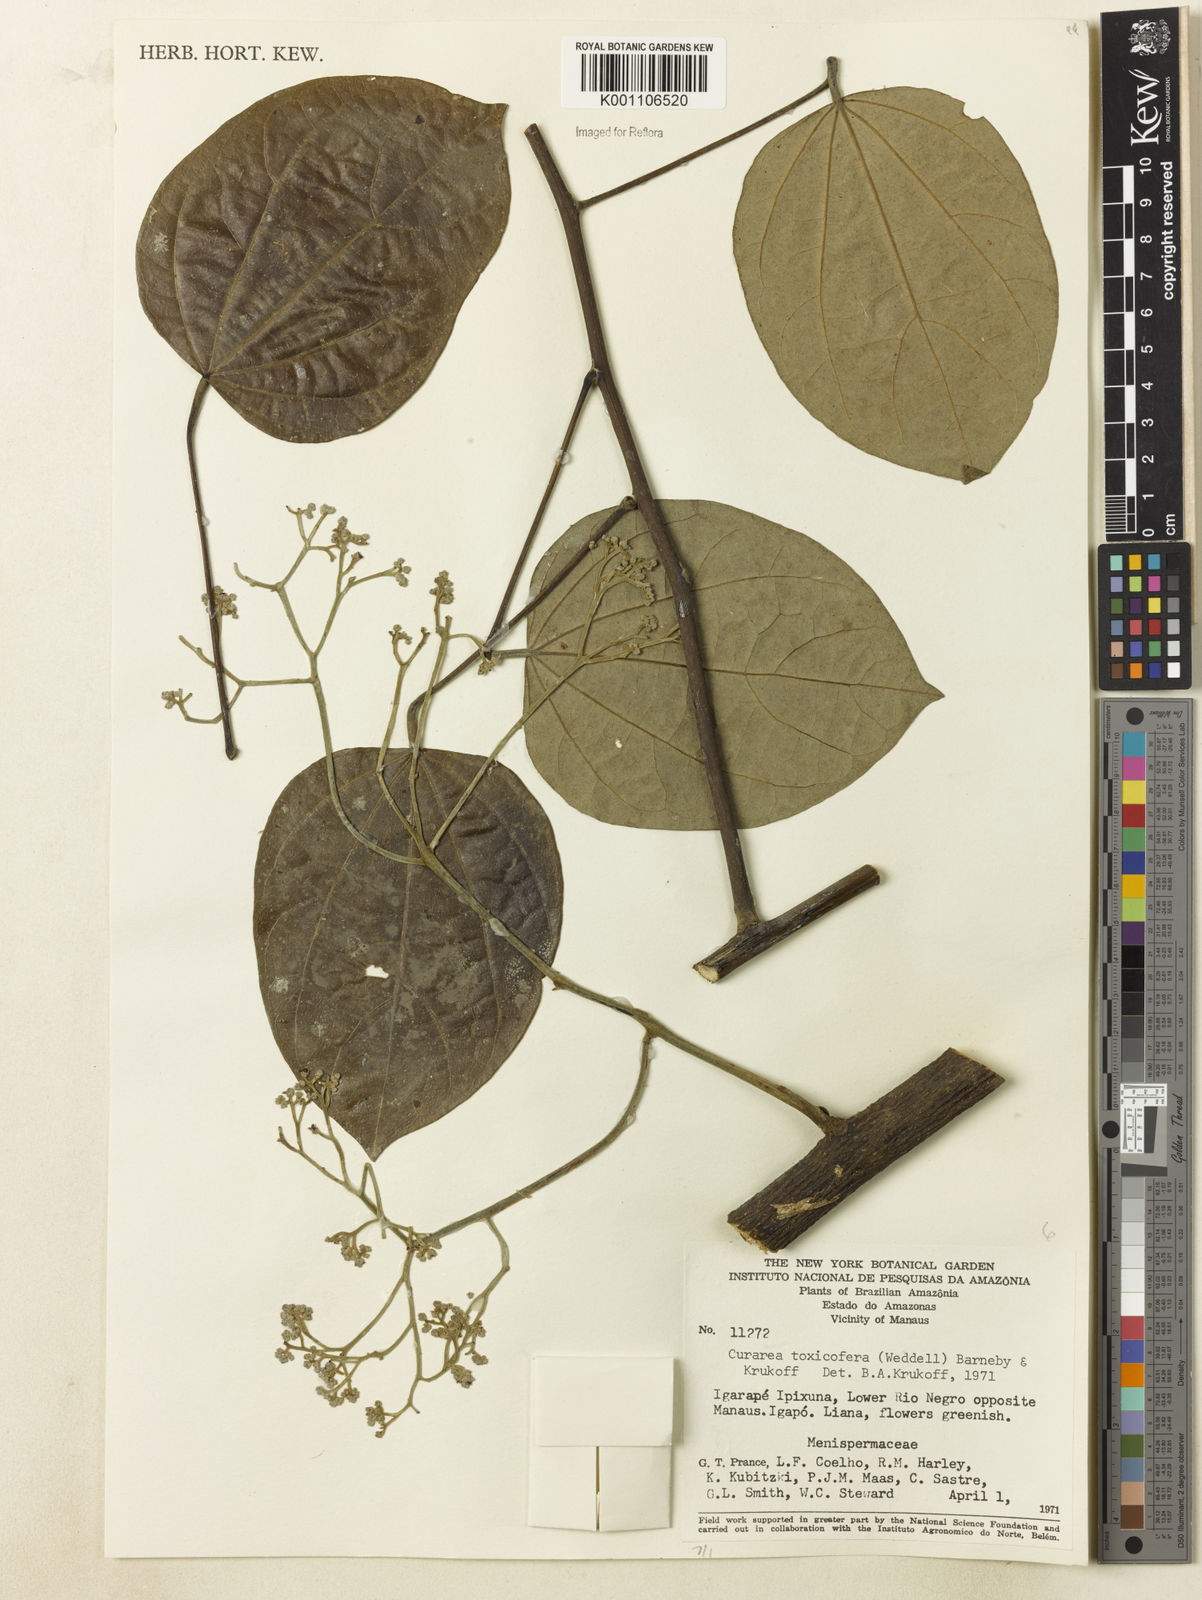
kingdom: Plantae
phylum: Tracheophyta
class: Magnoliopsida
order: Ranunculales
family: Menispermaceae
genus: Curarea
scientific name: Curarea toxicofera
